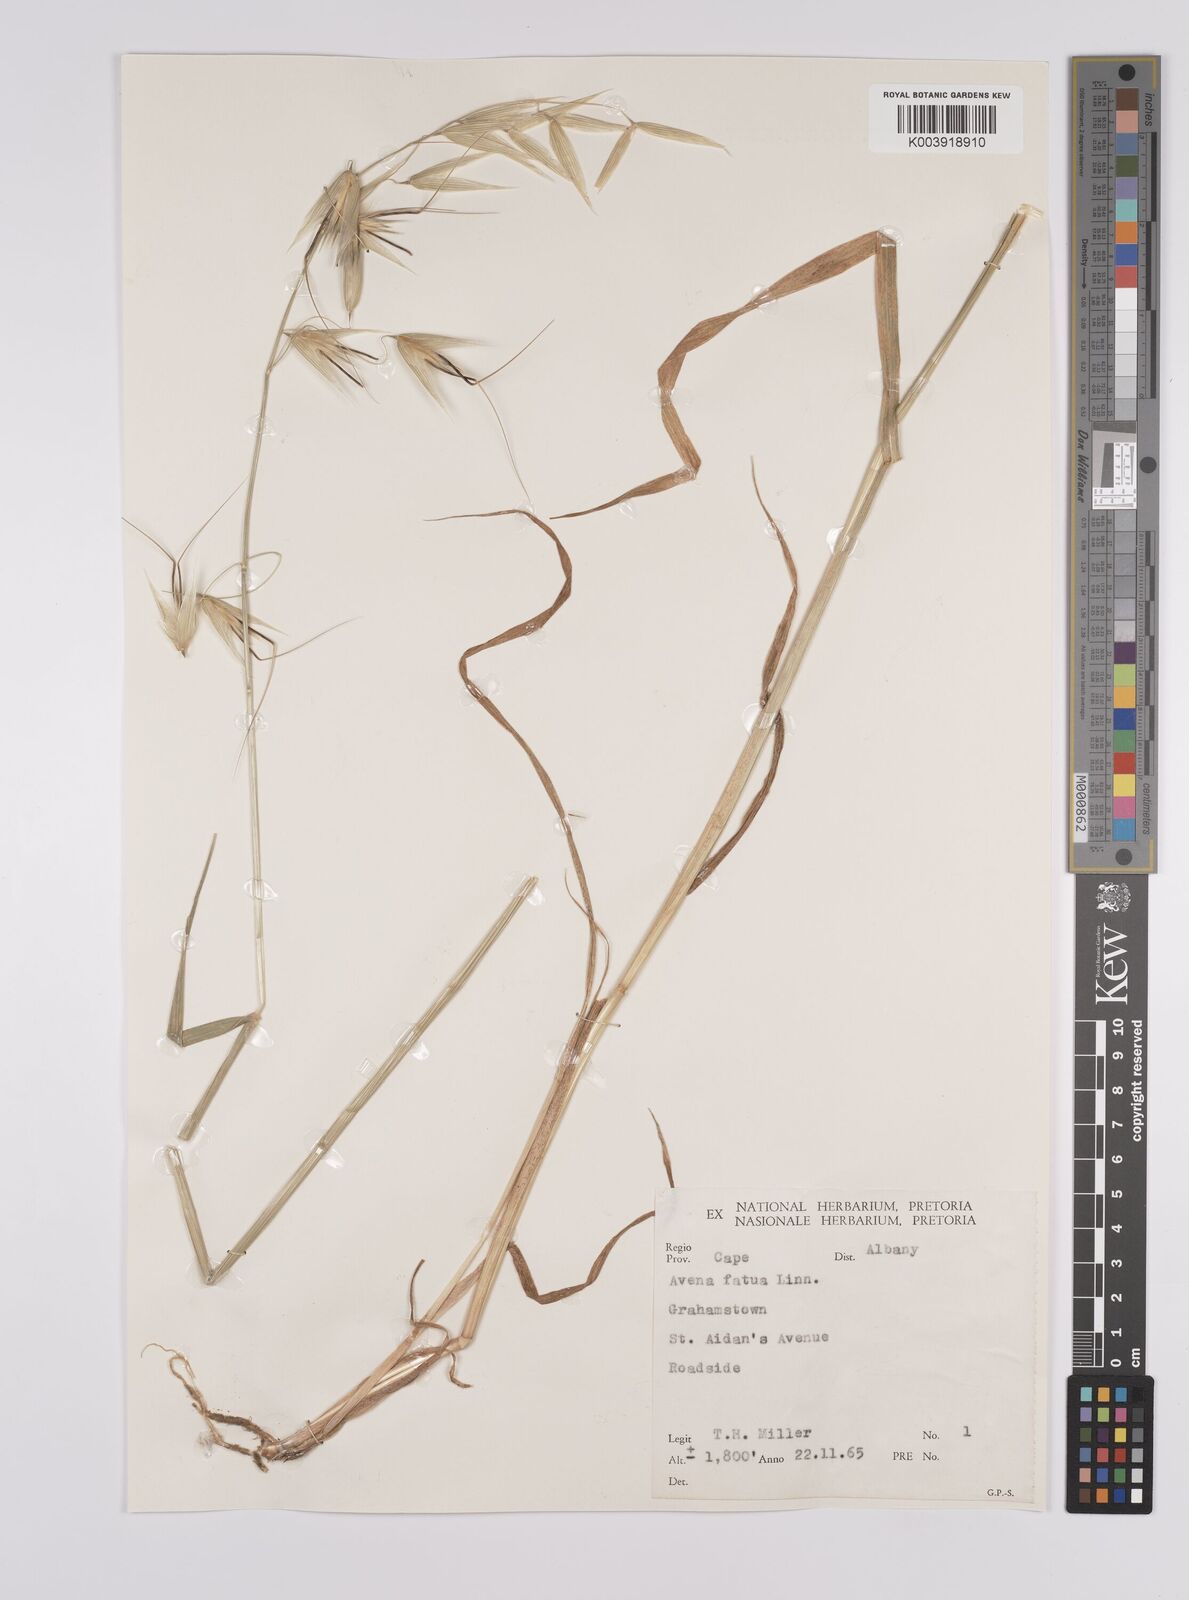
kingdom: Plantae
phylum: Tracheophyta
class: Liliopsida
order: Poales
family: Poaceae
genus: Avena
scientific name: Avena fatua
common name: Wild oat
